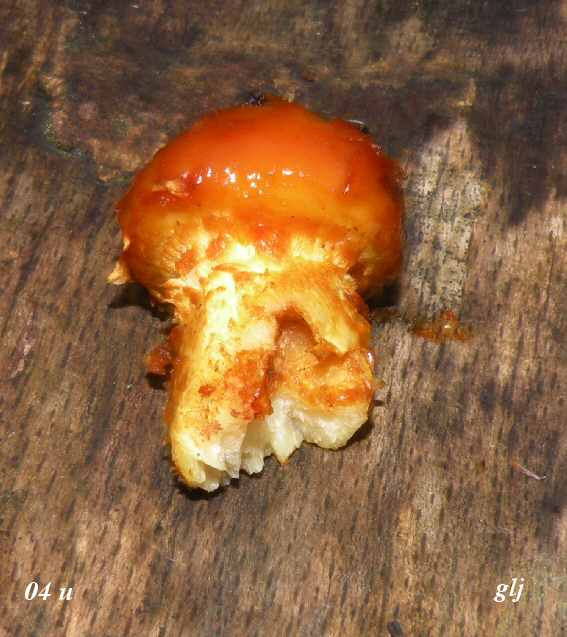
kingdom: Fungi
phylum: Basidiomycota
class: Agaricomycetes
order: Agaricales
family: Strophariaceae
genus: Pholiota
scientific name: Pholiota adiposa
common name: højtsiddende skælhat
